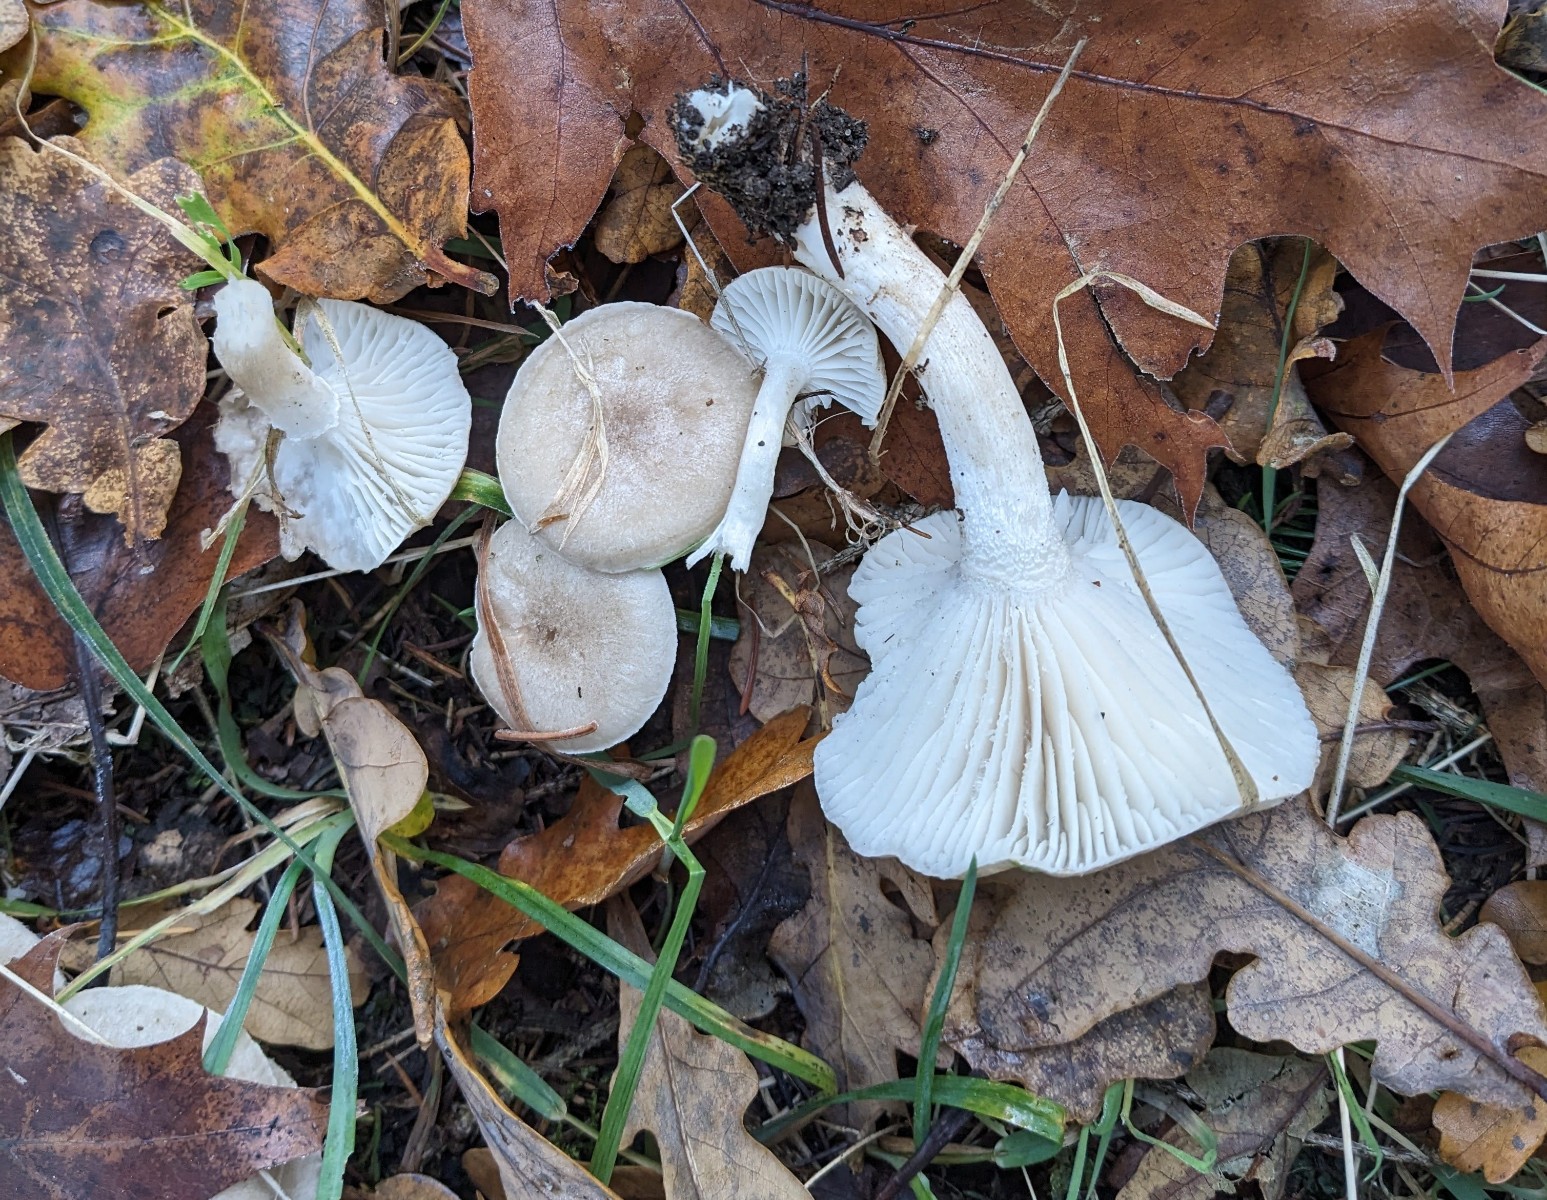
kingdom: Fungi
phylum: Basidiomycota
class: Agaricomycetes
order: Agaricales
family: Hygrophoraceae
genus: Hygrophorus
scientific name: Hygrophorus agathosmus
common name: vellugtende sneglehat
